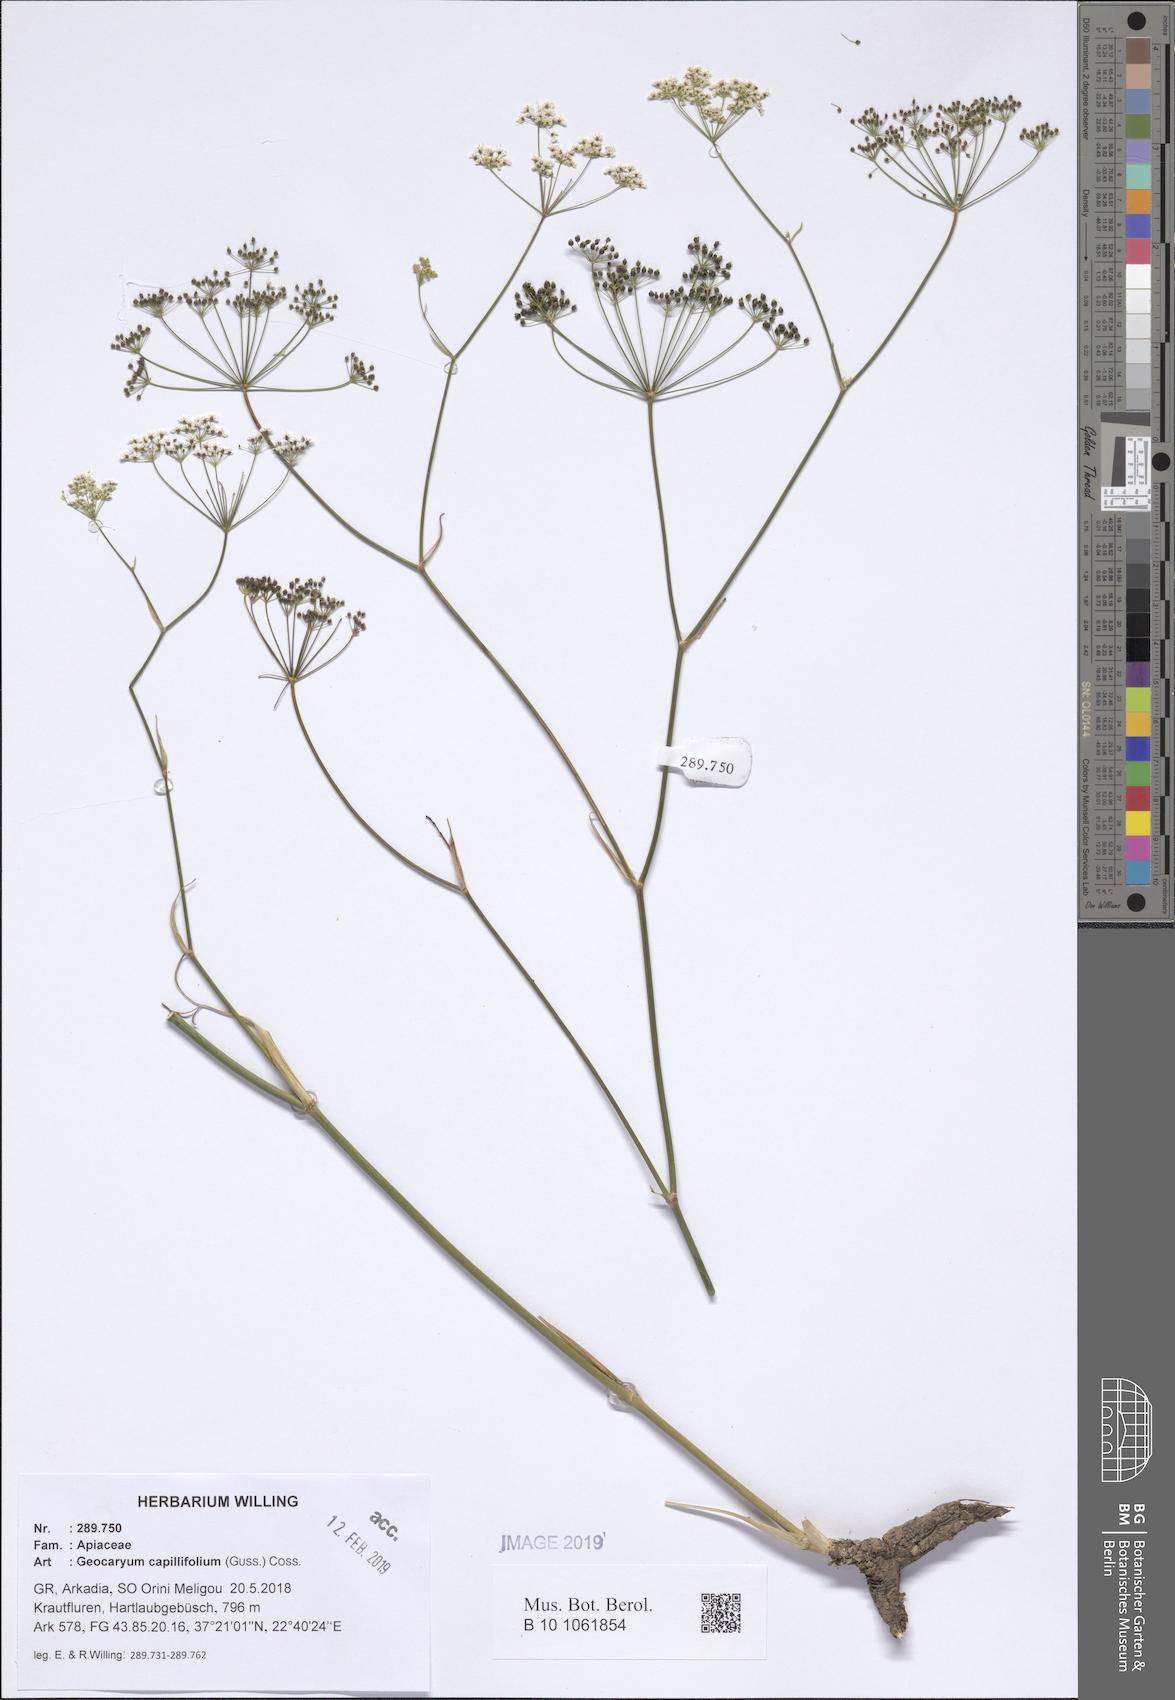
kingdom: Plantae
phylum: Tracheophyta
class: Magnoliopsida
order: Apiales
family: Apiaceae
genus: Geocaryum
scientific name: Geocaryum capillifolium
